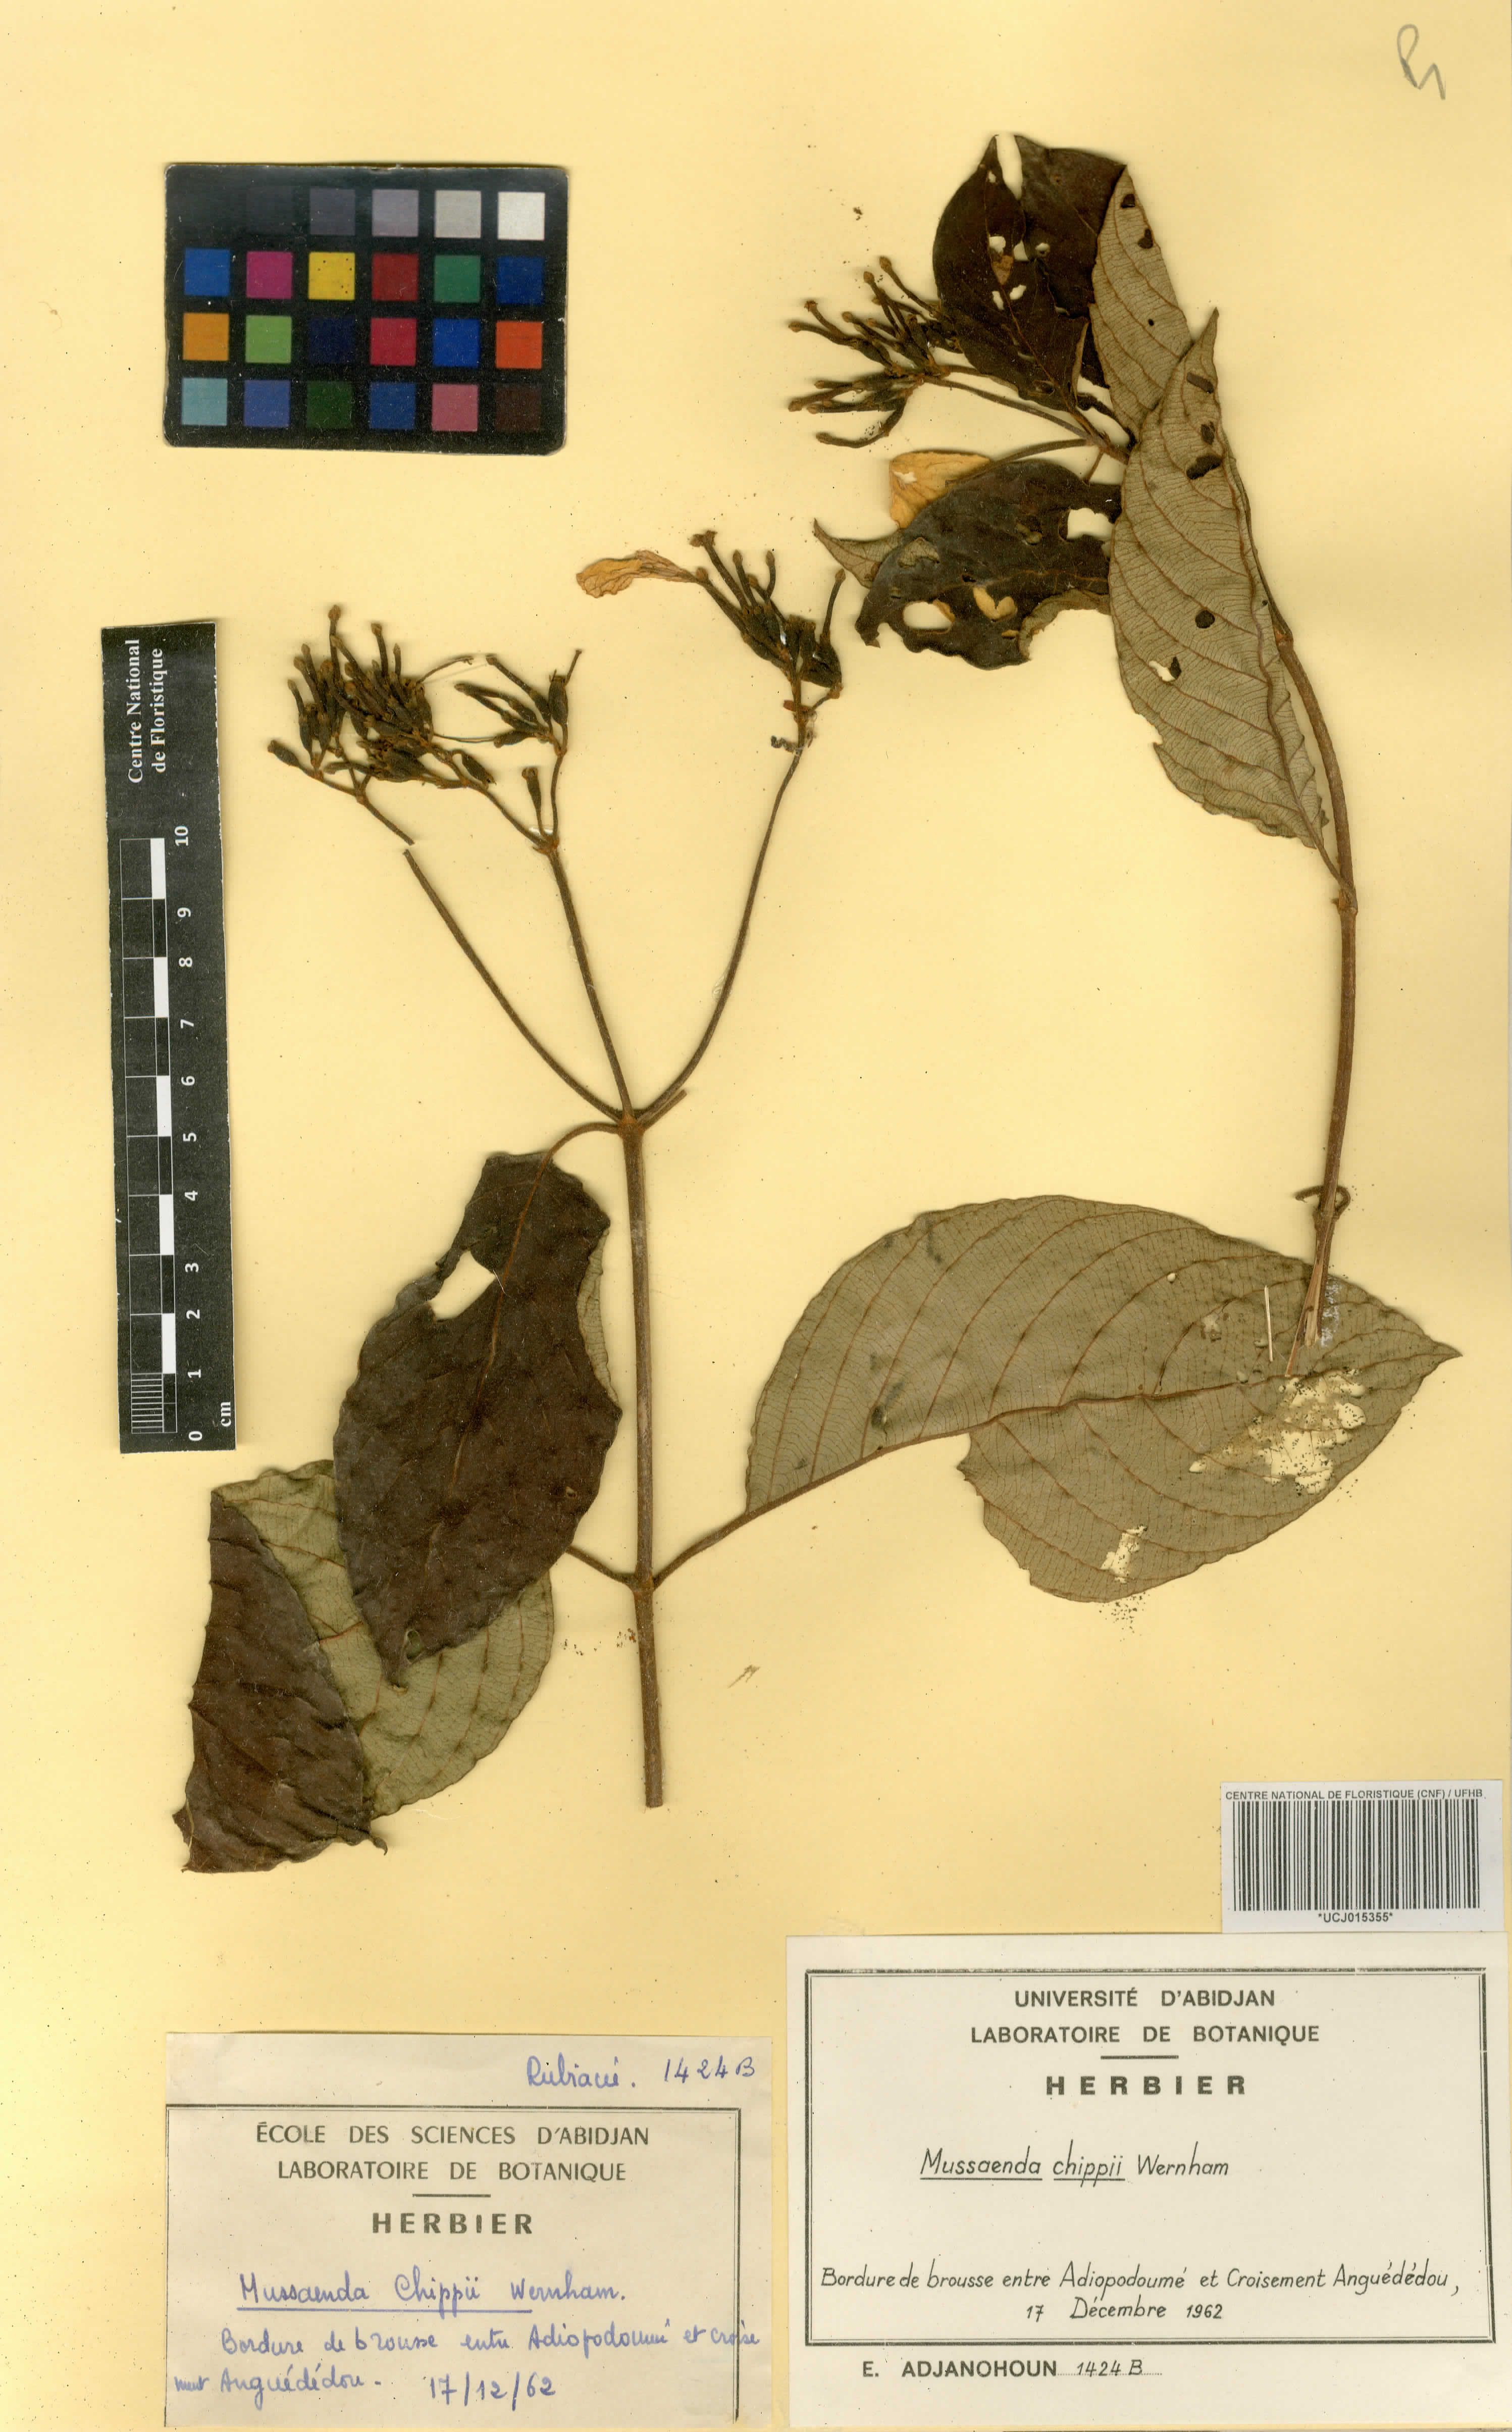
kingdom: Plantae
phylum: Tracheophyta
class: Magnoliopsida
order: Gentianales
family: Rubiaceae
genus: Mussaenda
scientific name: Mussaenda chippii
